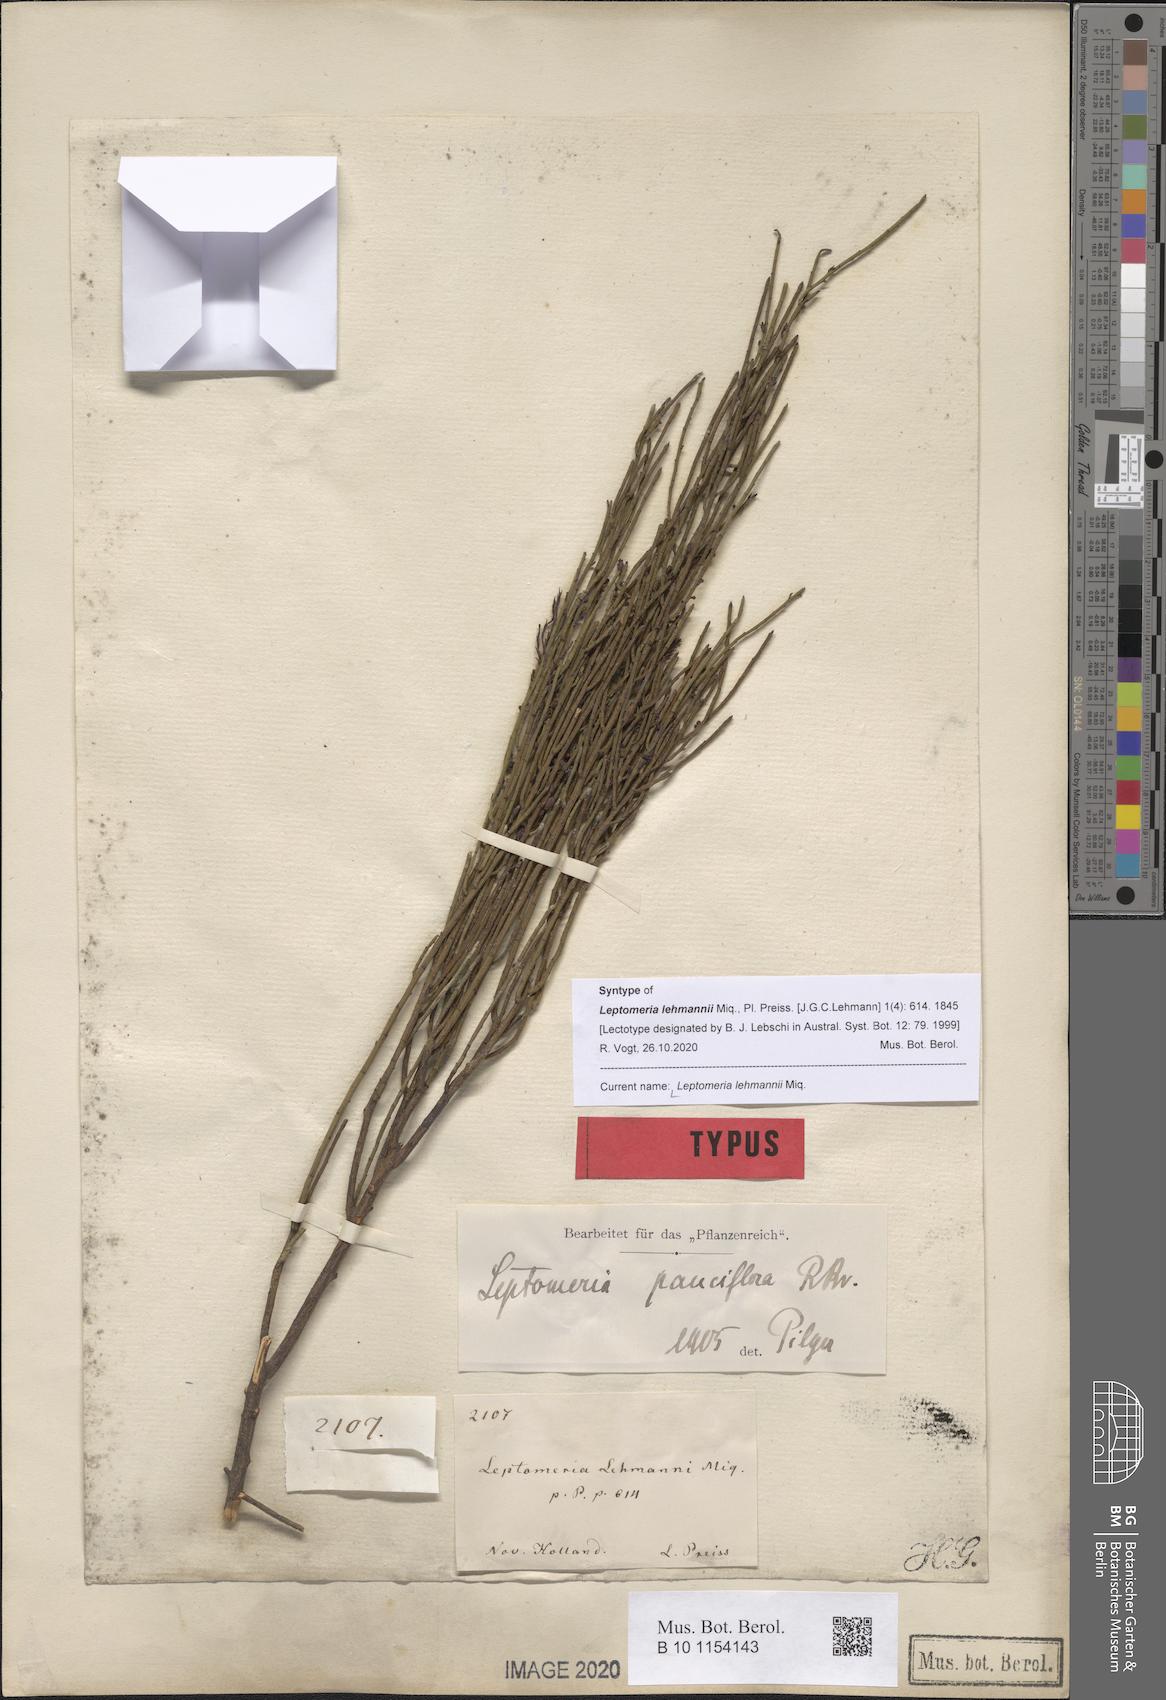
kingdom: Plantae
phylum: Tracheophyta
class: Magnoliopsida
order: Santalales
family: Amphorogynaceae
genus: Leptomeria
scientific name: Leptomeria pauciflora
